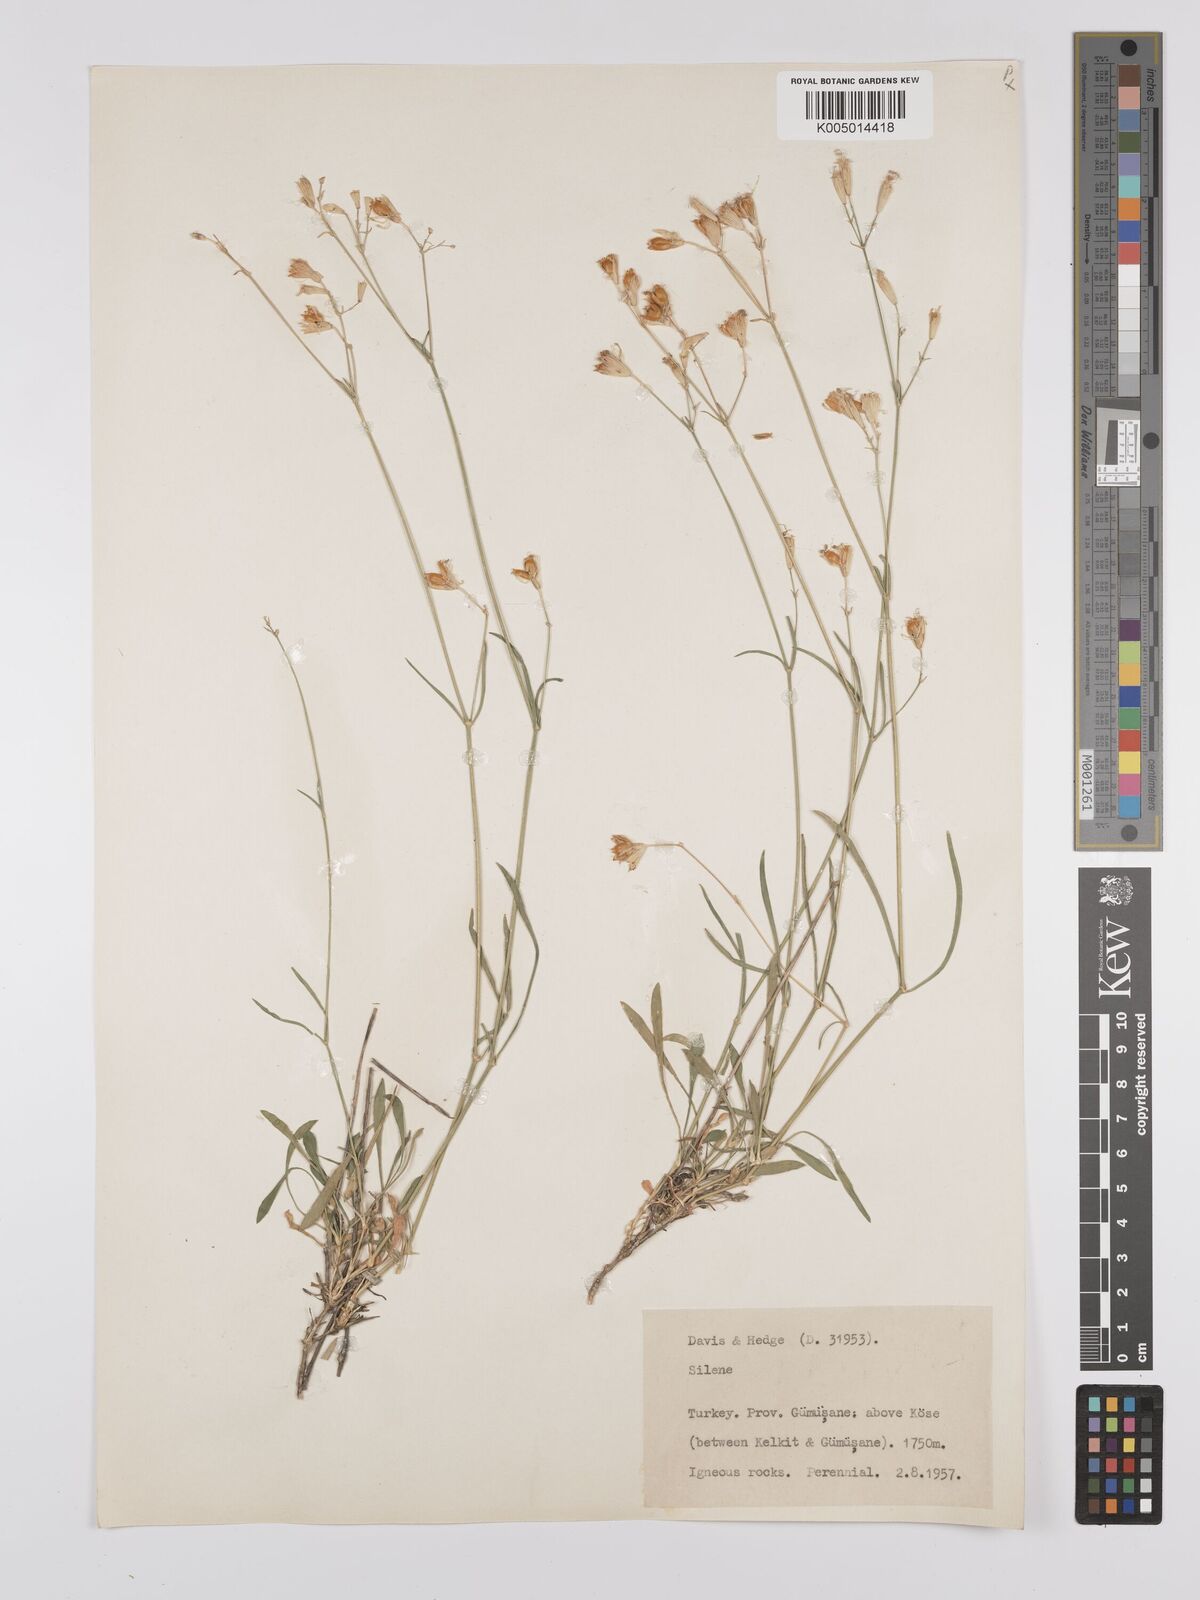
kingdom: Plantae
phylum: Tracheophyta
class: Magnoliopsida
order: Caryophyllales
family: Caryophyllaceae
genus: Silene
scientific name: Silene
